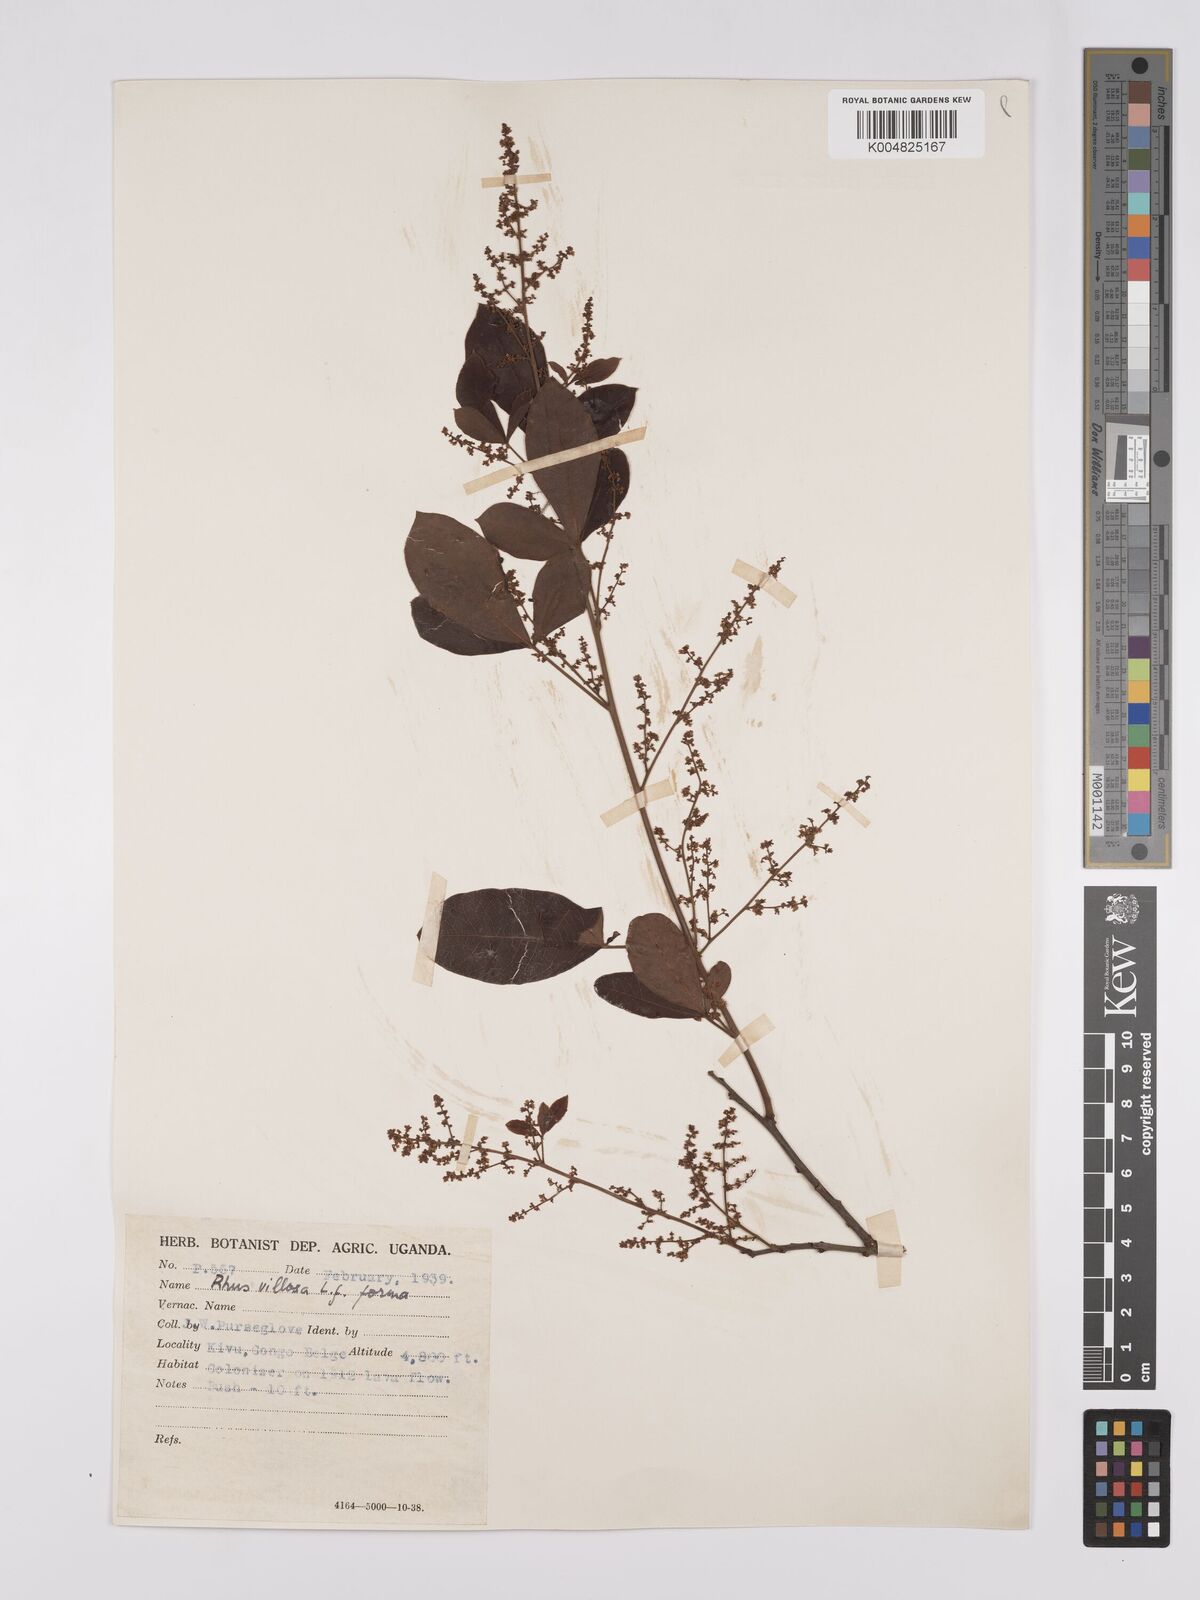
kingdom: Plantae
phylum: Tracheophyta
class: Magnoliopsida
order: Sapindales
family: Anacardiaceae
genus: Searsia
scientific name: Searsia longipes
